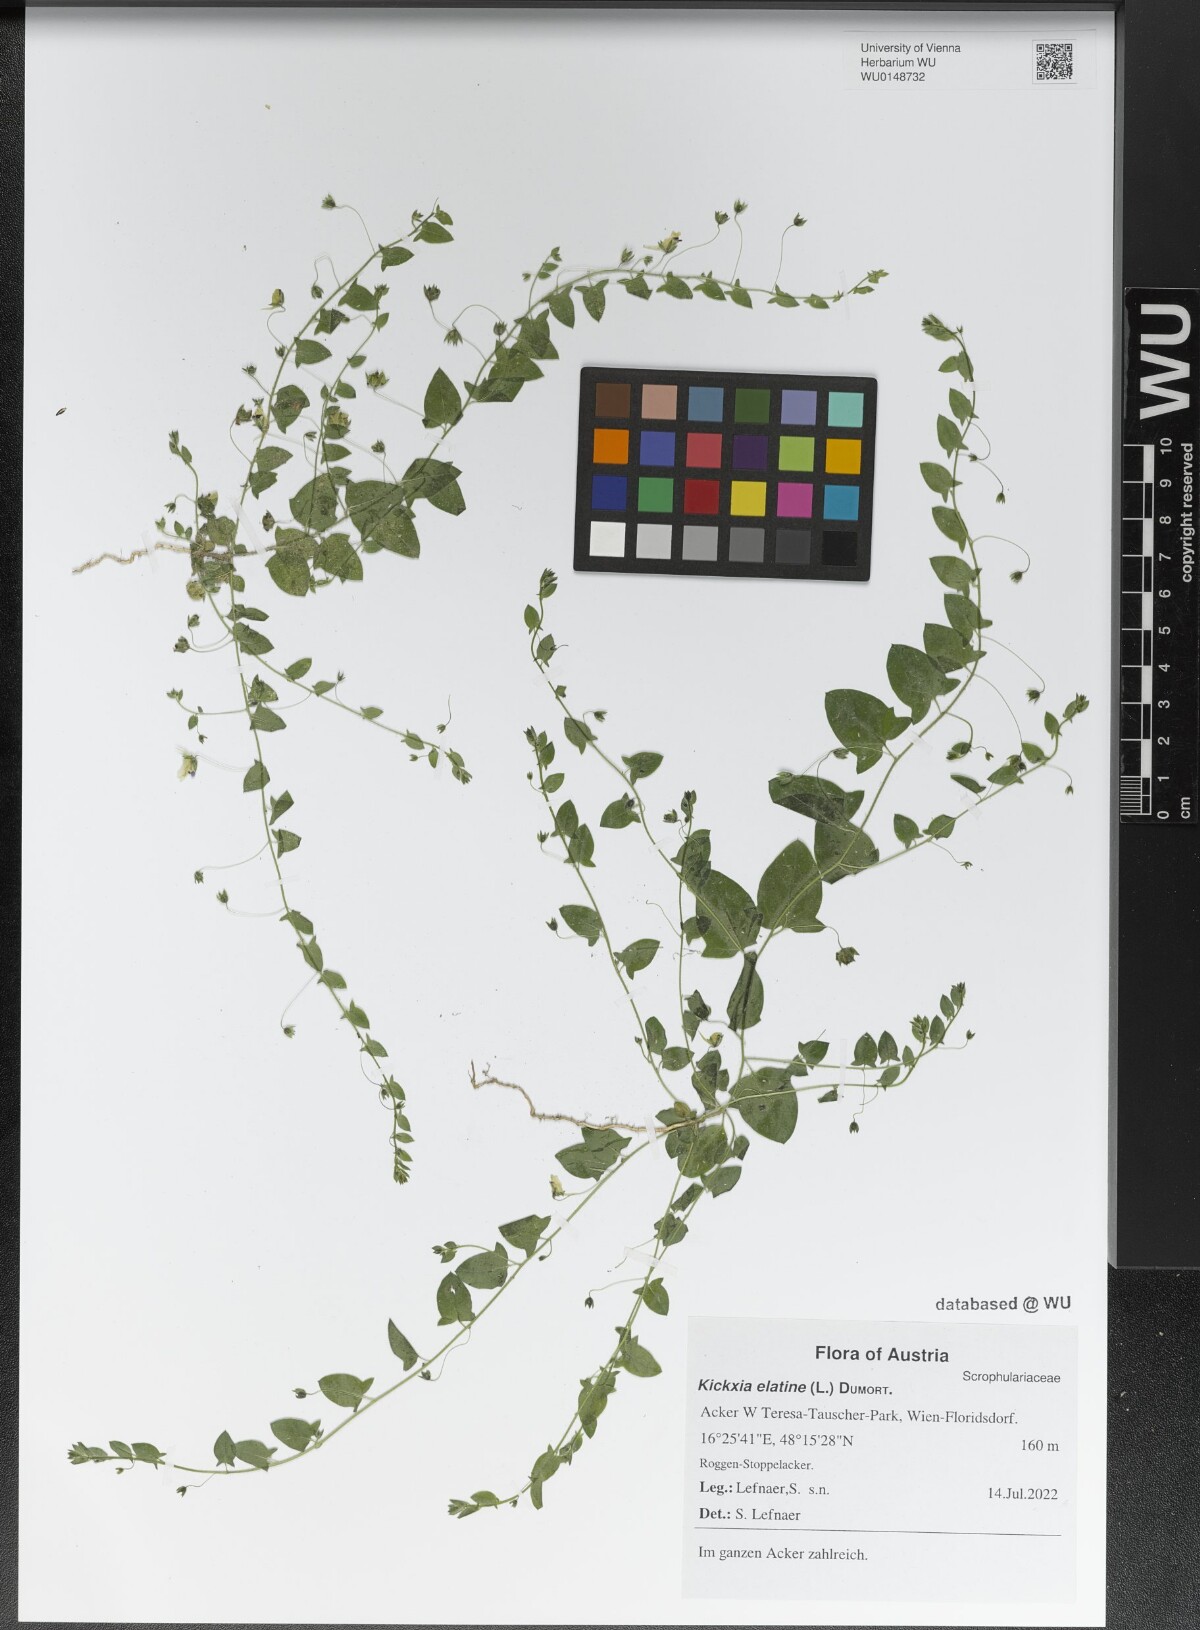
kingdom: Plantae
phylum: Tracheophyta
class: Magnoliopsida
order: Lamiales
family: Plantaginaceae
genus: Kickxia
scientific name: Kickxia elatine
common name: Sharp-leaved fluellen
